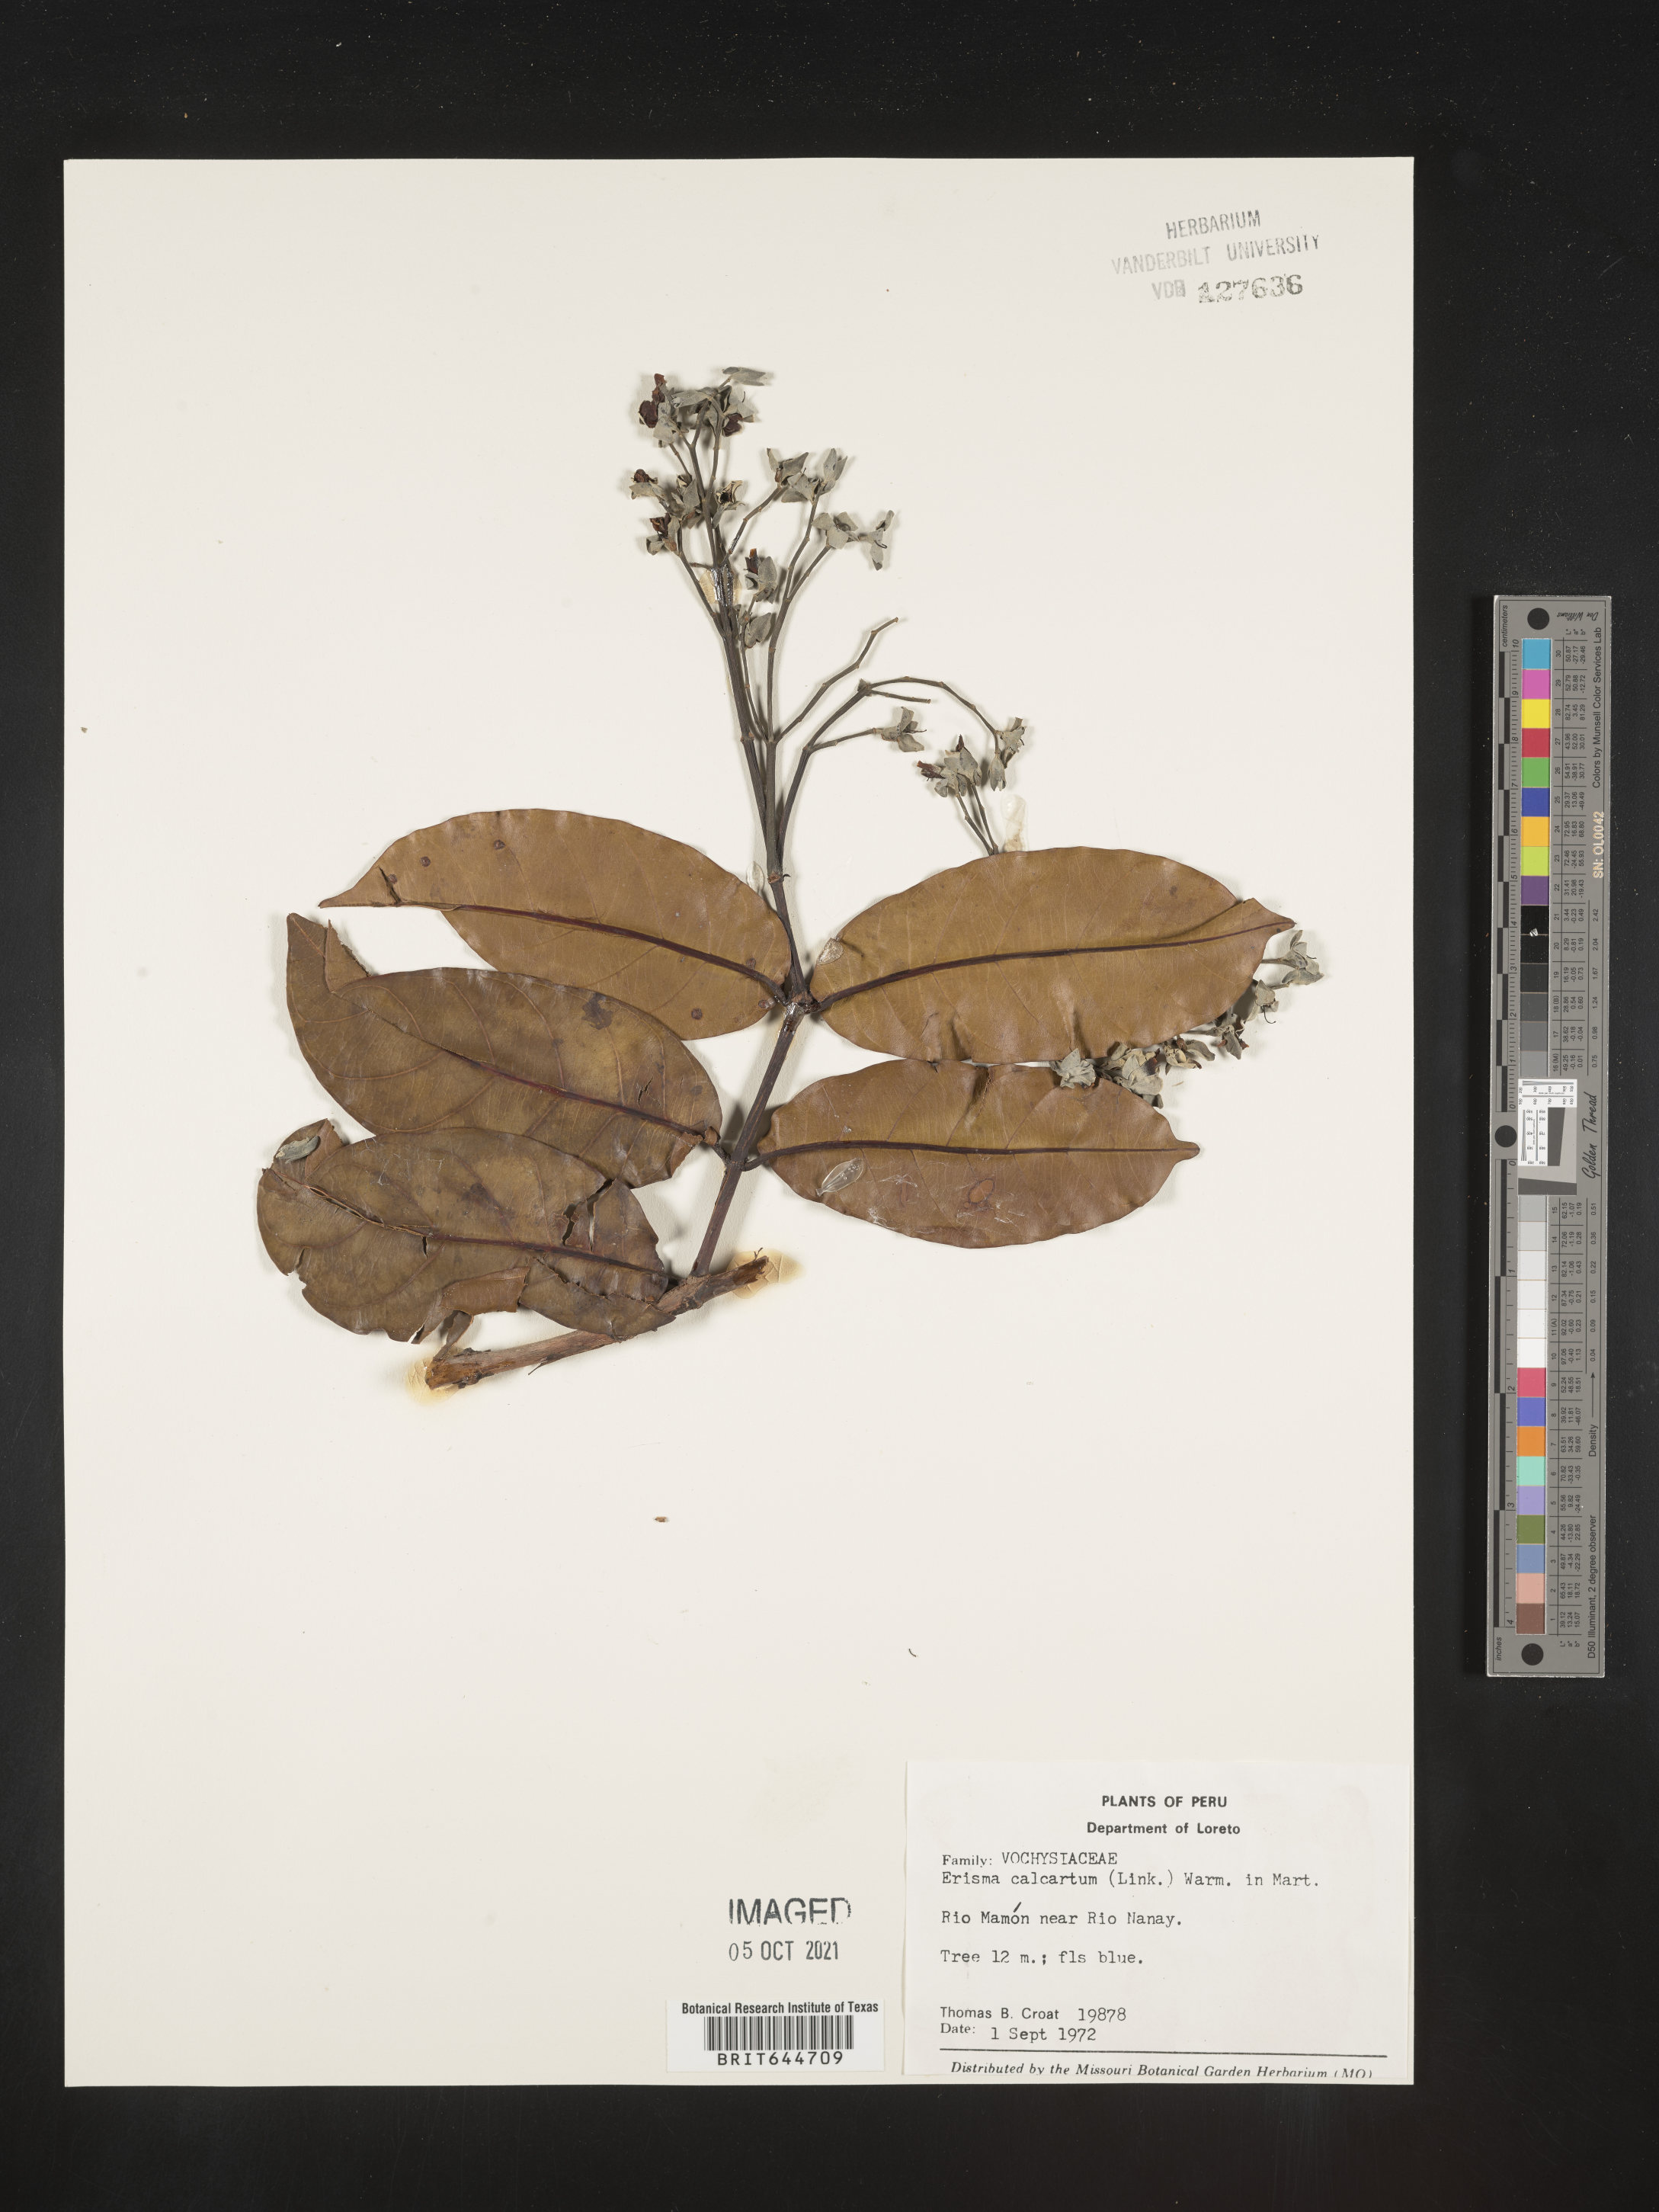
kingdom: Plantae
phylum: Tracheophyta
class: Magnoliopsida
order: Myrtales
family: Vochysiaceae
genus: Erisma
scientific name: Erisma
